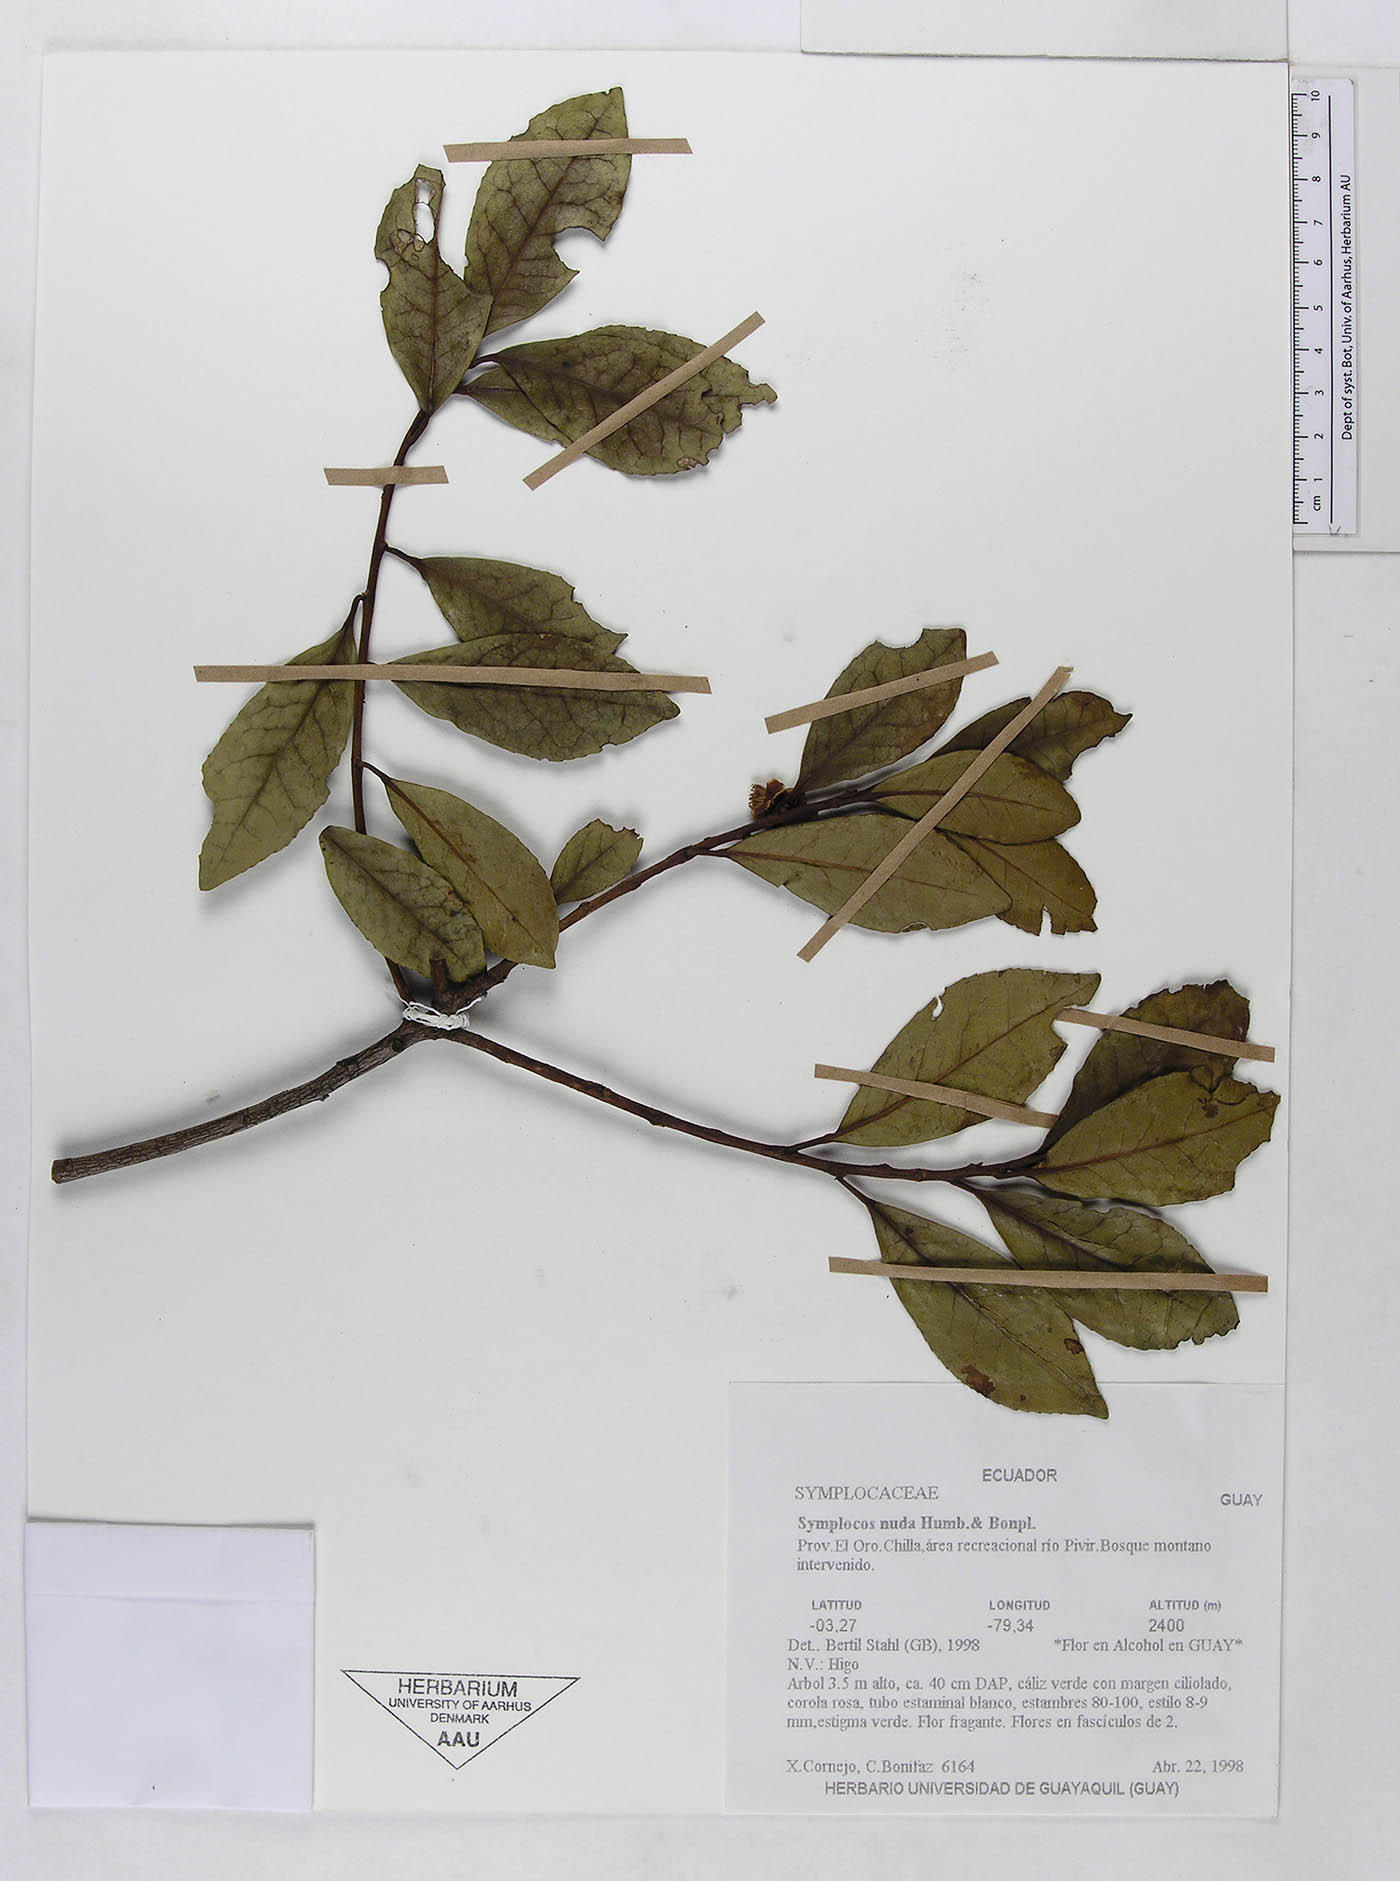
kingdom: Plantae
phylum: Tracheophyta
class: Magnoliopsida
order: Ericales
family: Symplocaceae
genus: Symplocos
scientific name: Symplocos nuda
